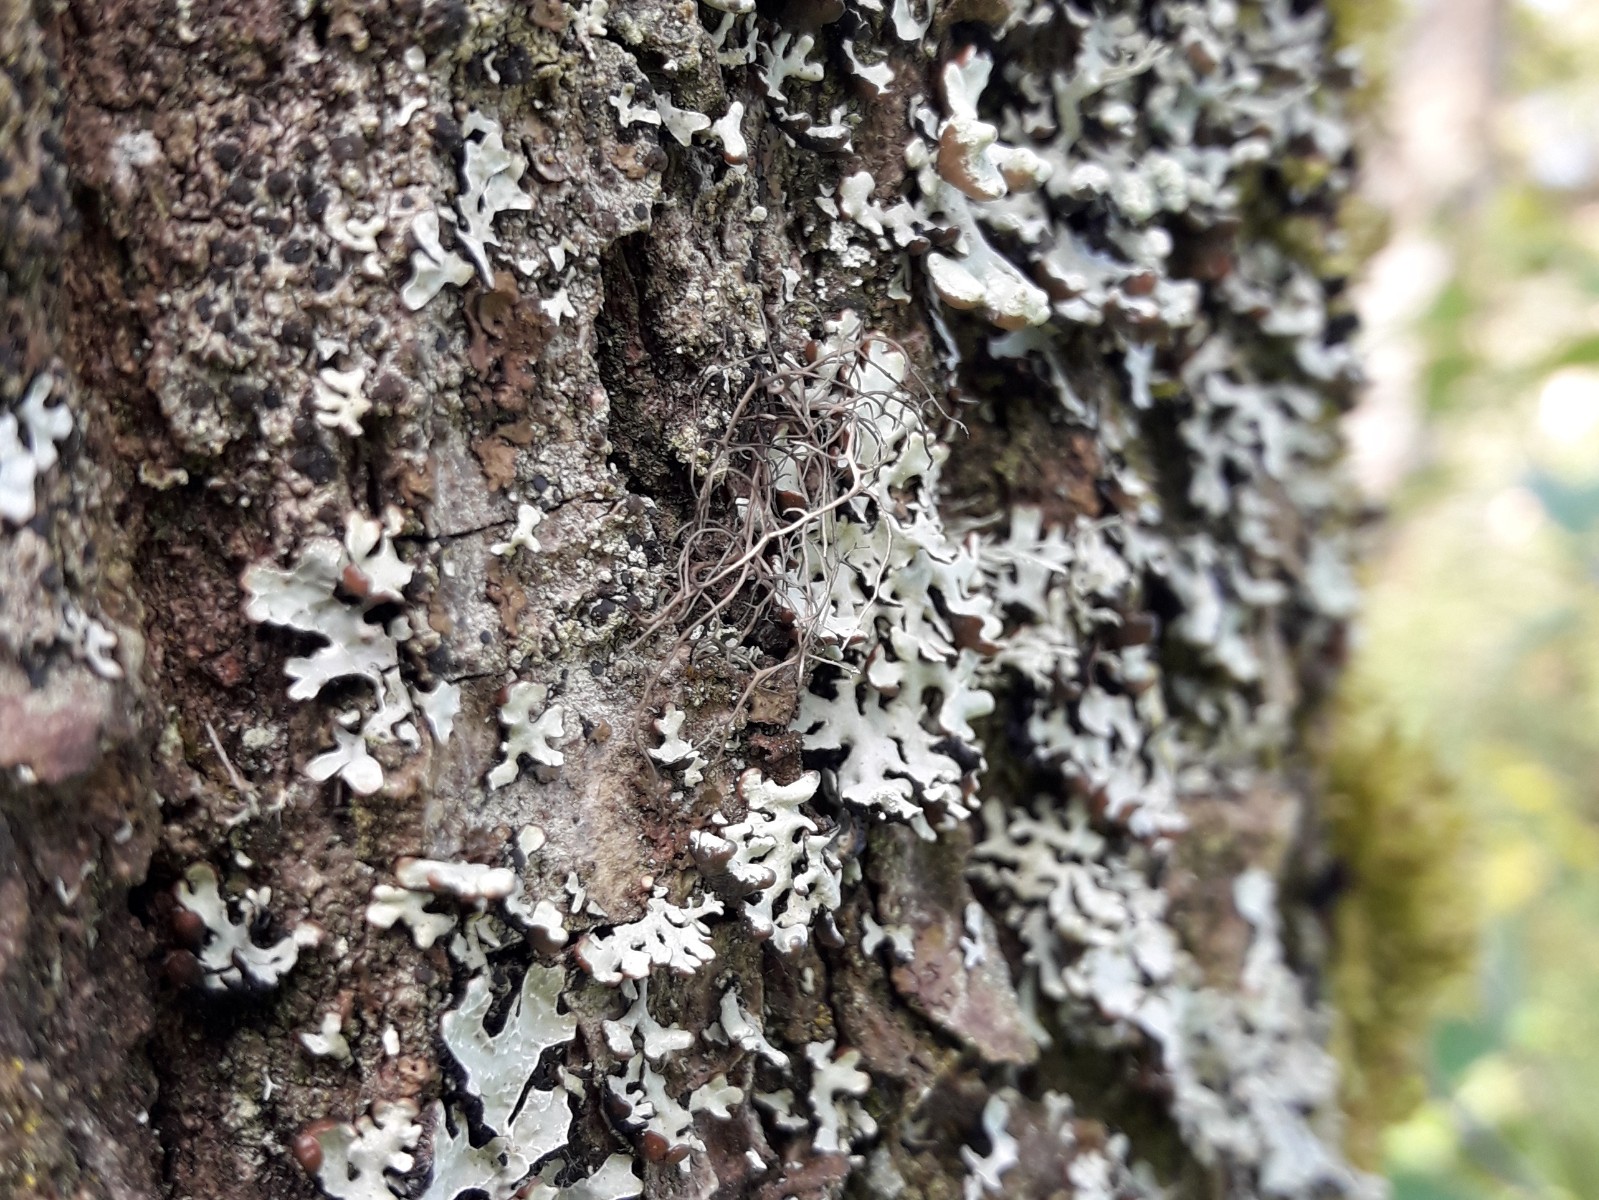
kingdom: Fungi
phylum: Ascomycota
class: Lecanoromycetes
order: Lecanorales
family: Parmeliaceae
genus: Bryoria
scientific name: Bryoria
